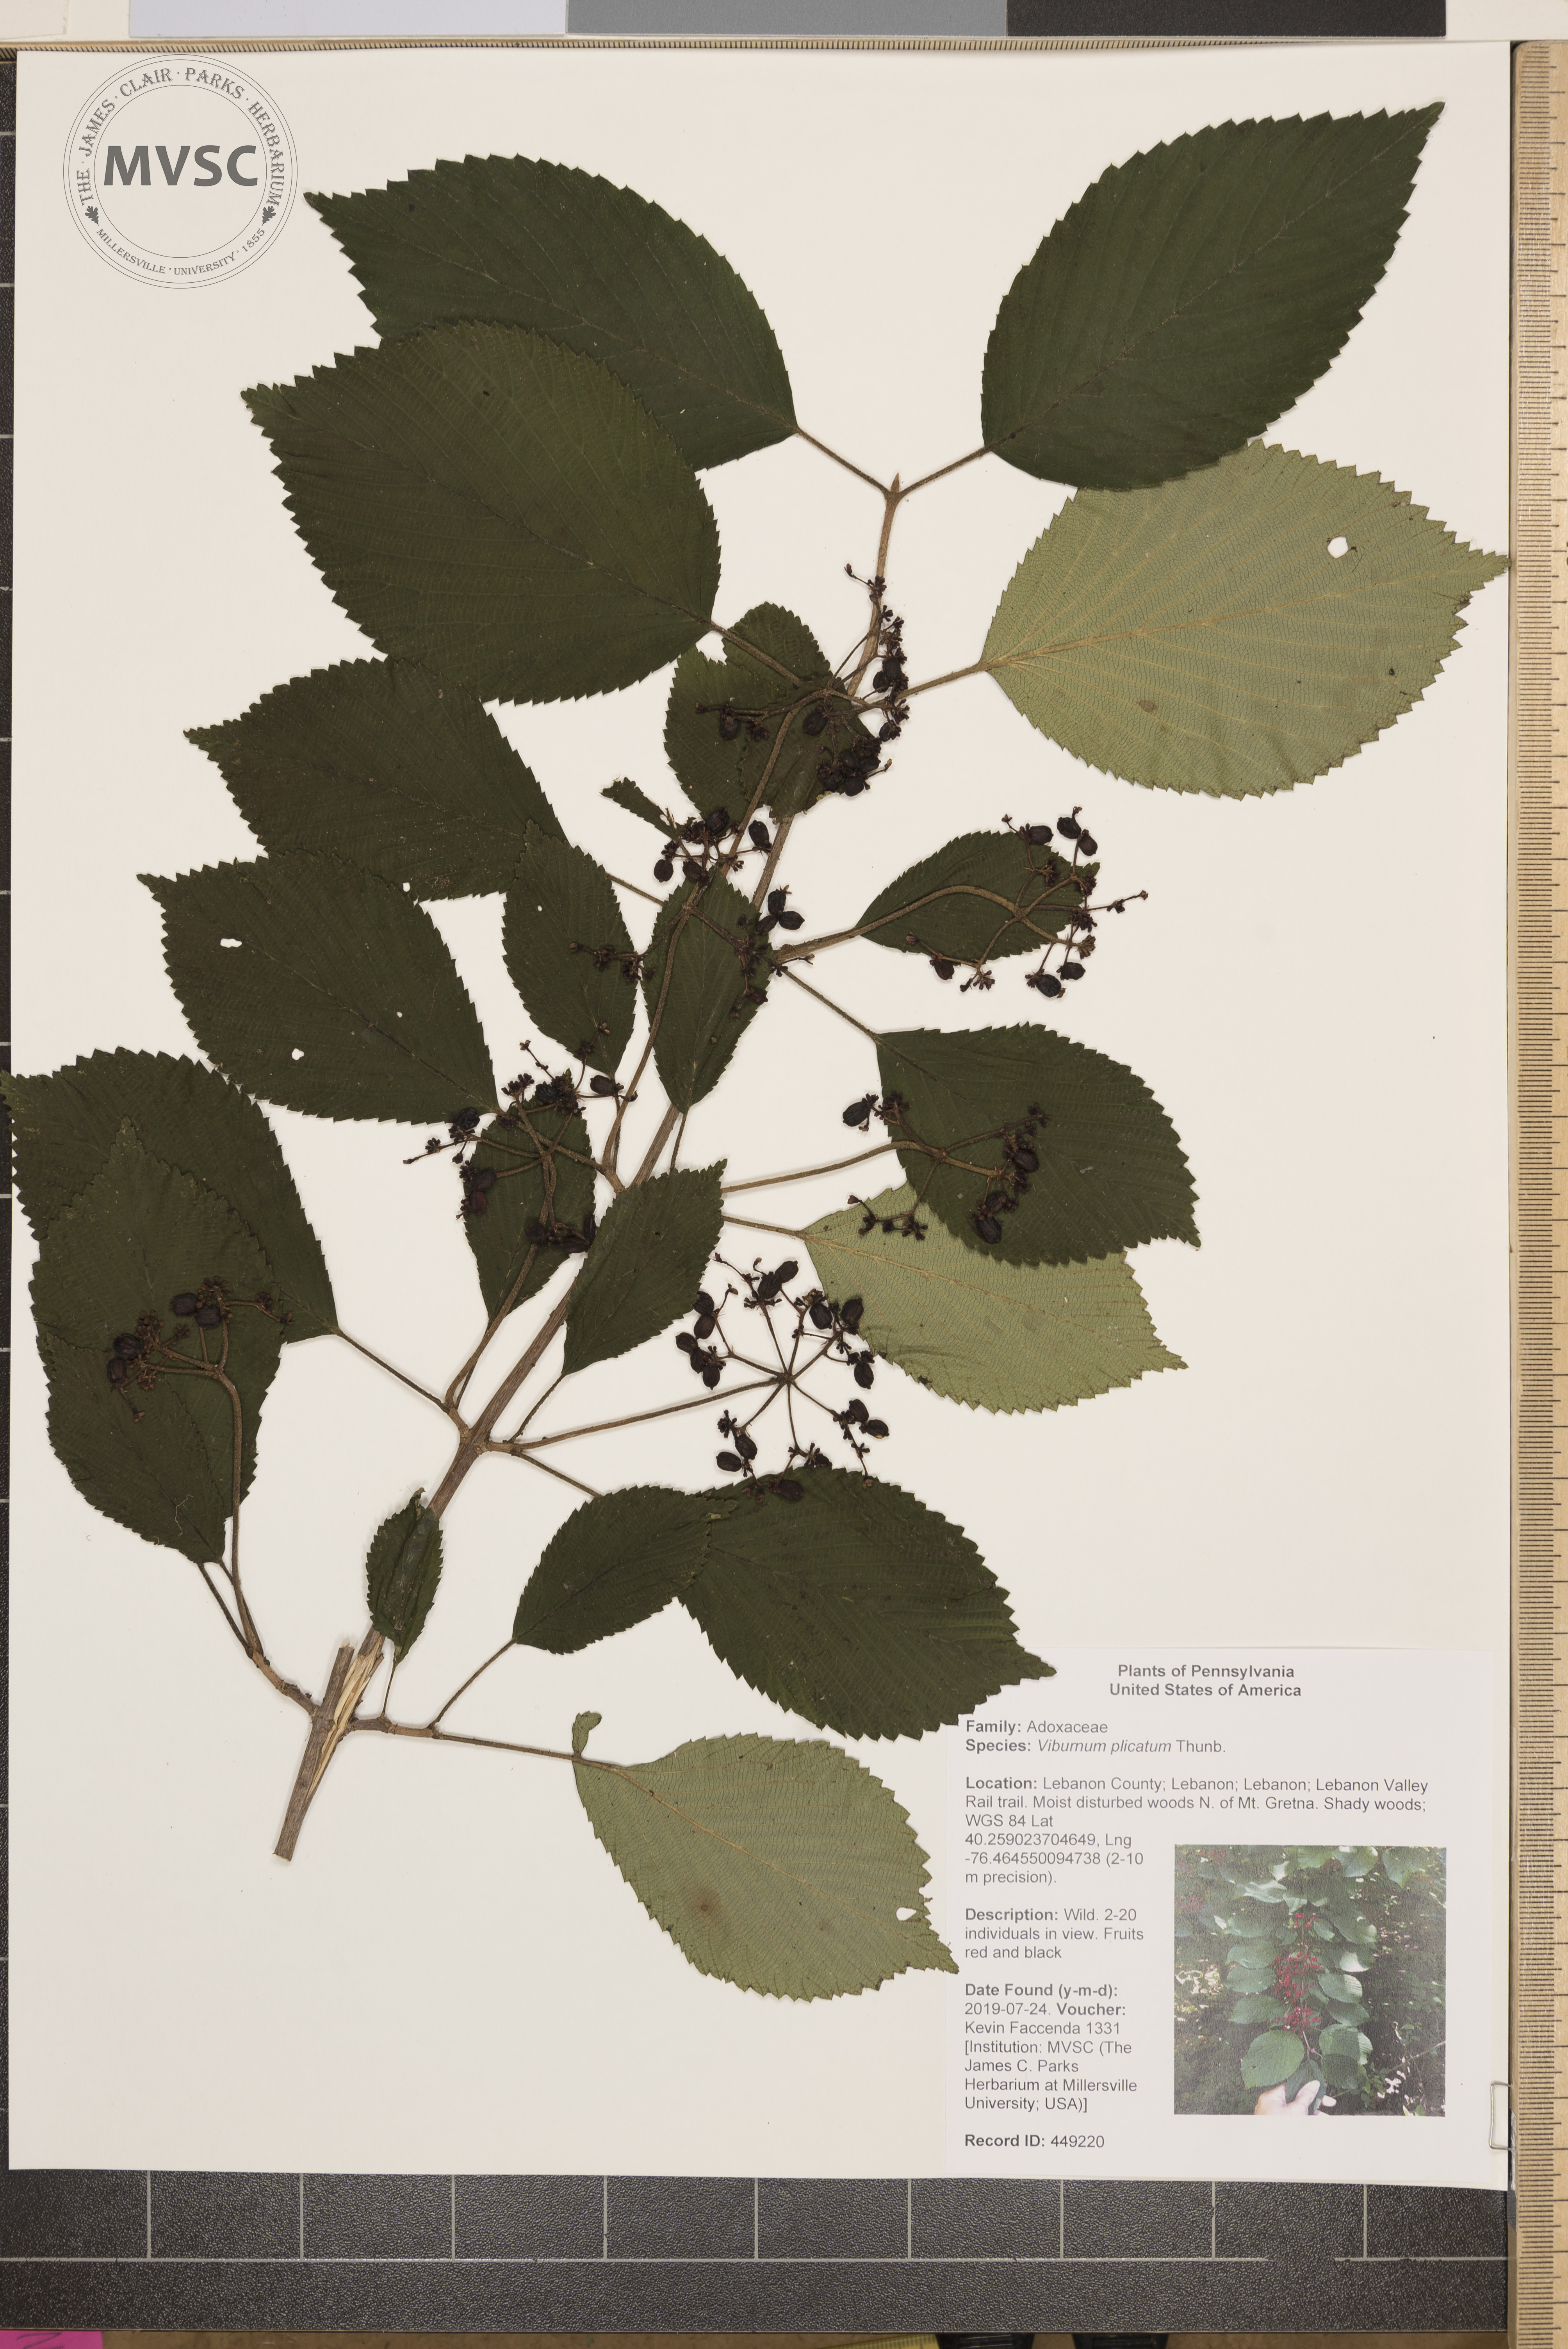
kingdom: Plantae
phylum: Tracheophyta
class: Magnoliopsida
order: Dipsacales
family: Viburnaceae
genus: Viburnum
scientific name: Viburnum plicatum
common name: Japanese snowball
